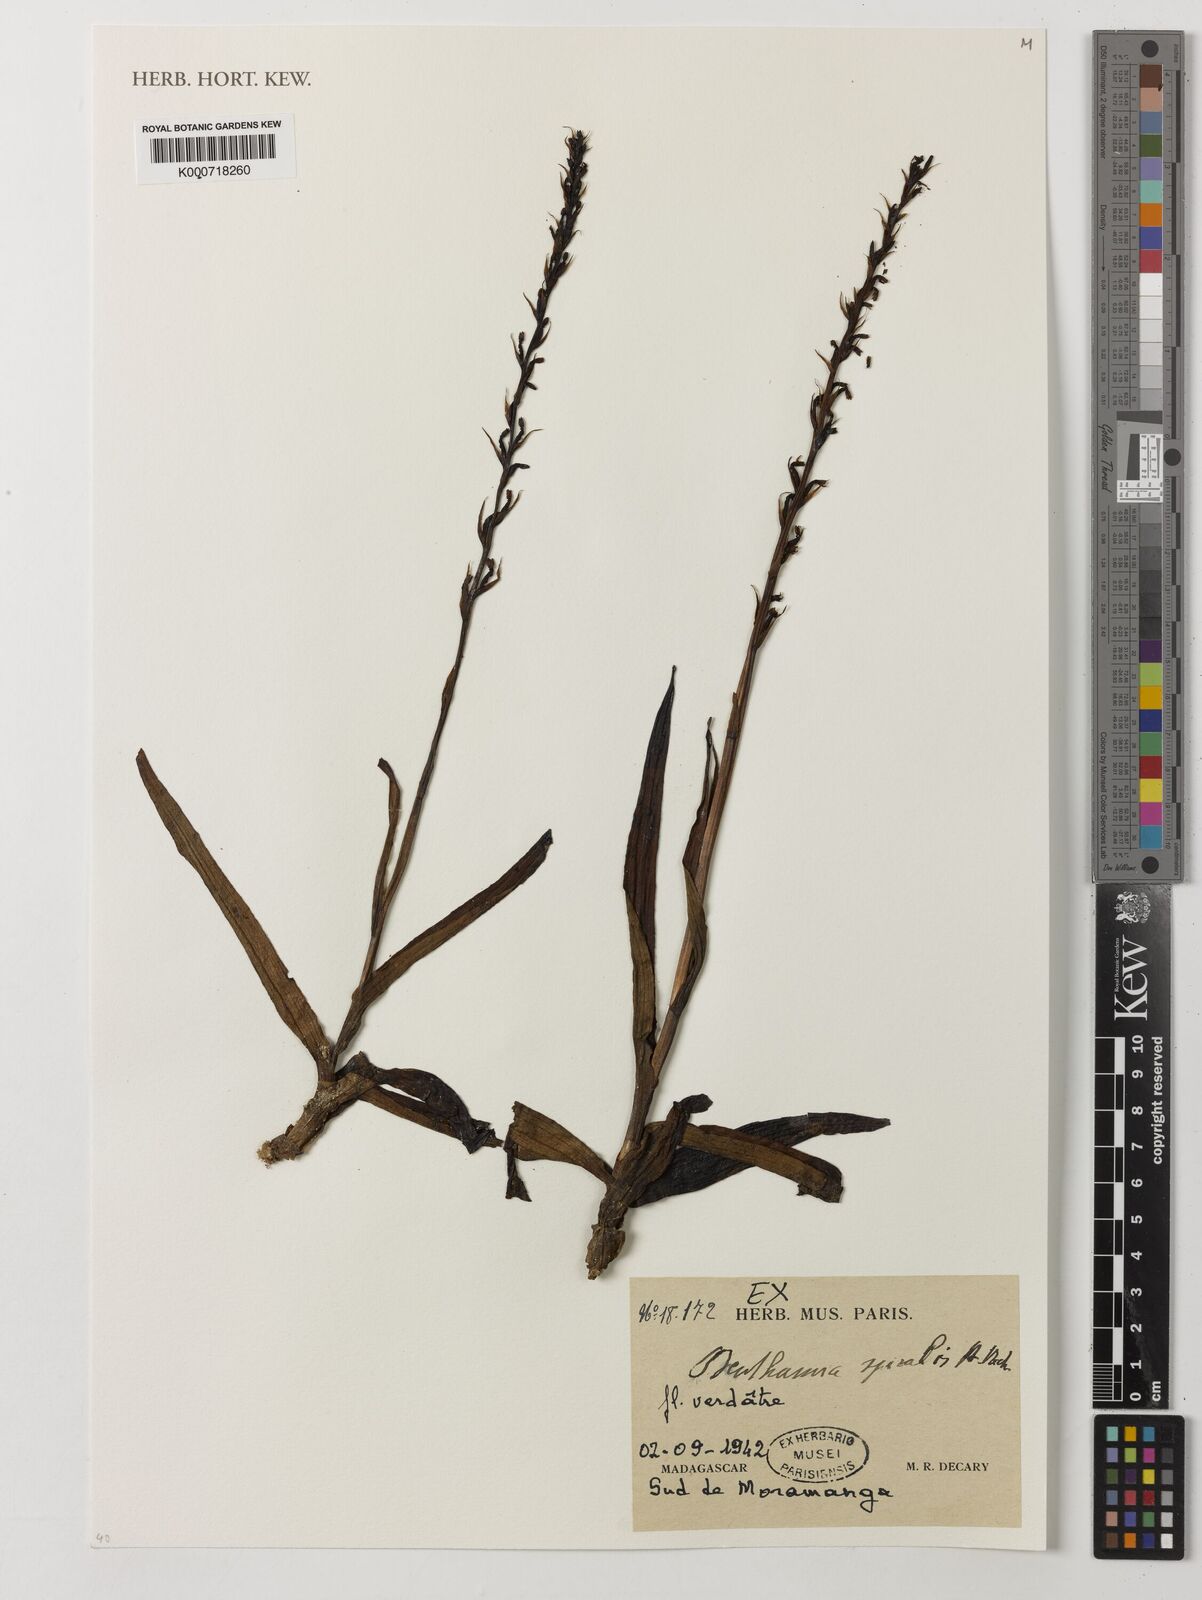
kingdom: Plantae
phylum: Tracheophyta
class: Liliopsida
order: Asparagales
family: Orchidaceae
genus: Benthamia
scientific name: Benthamia africana
